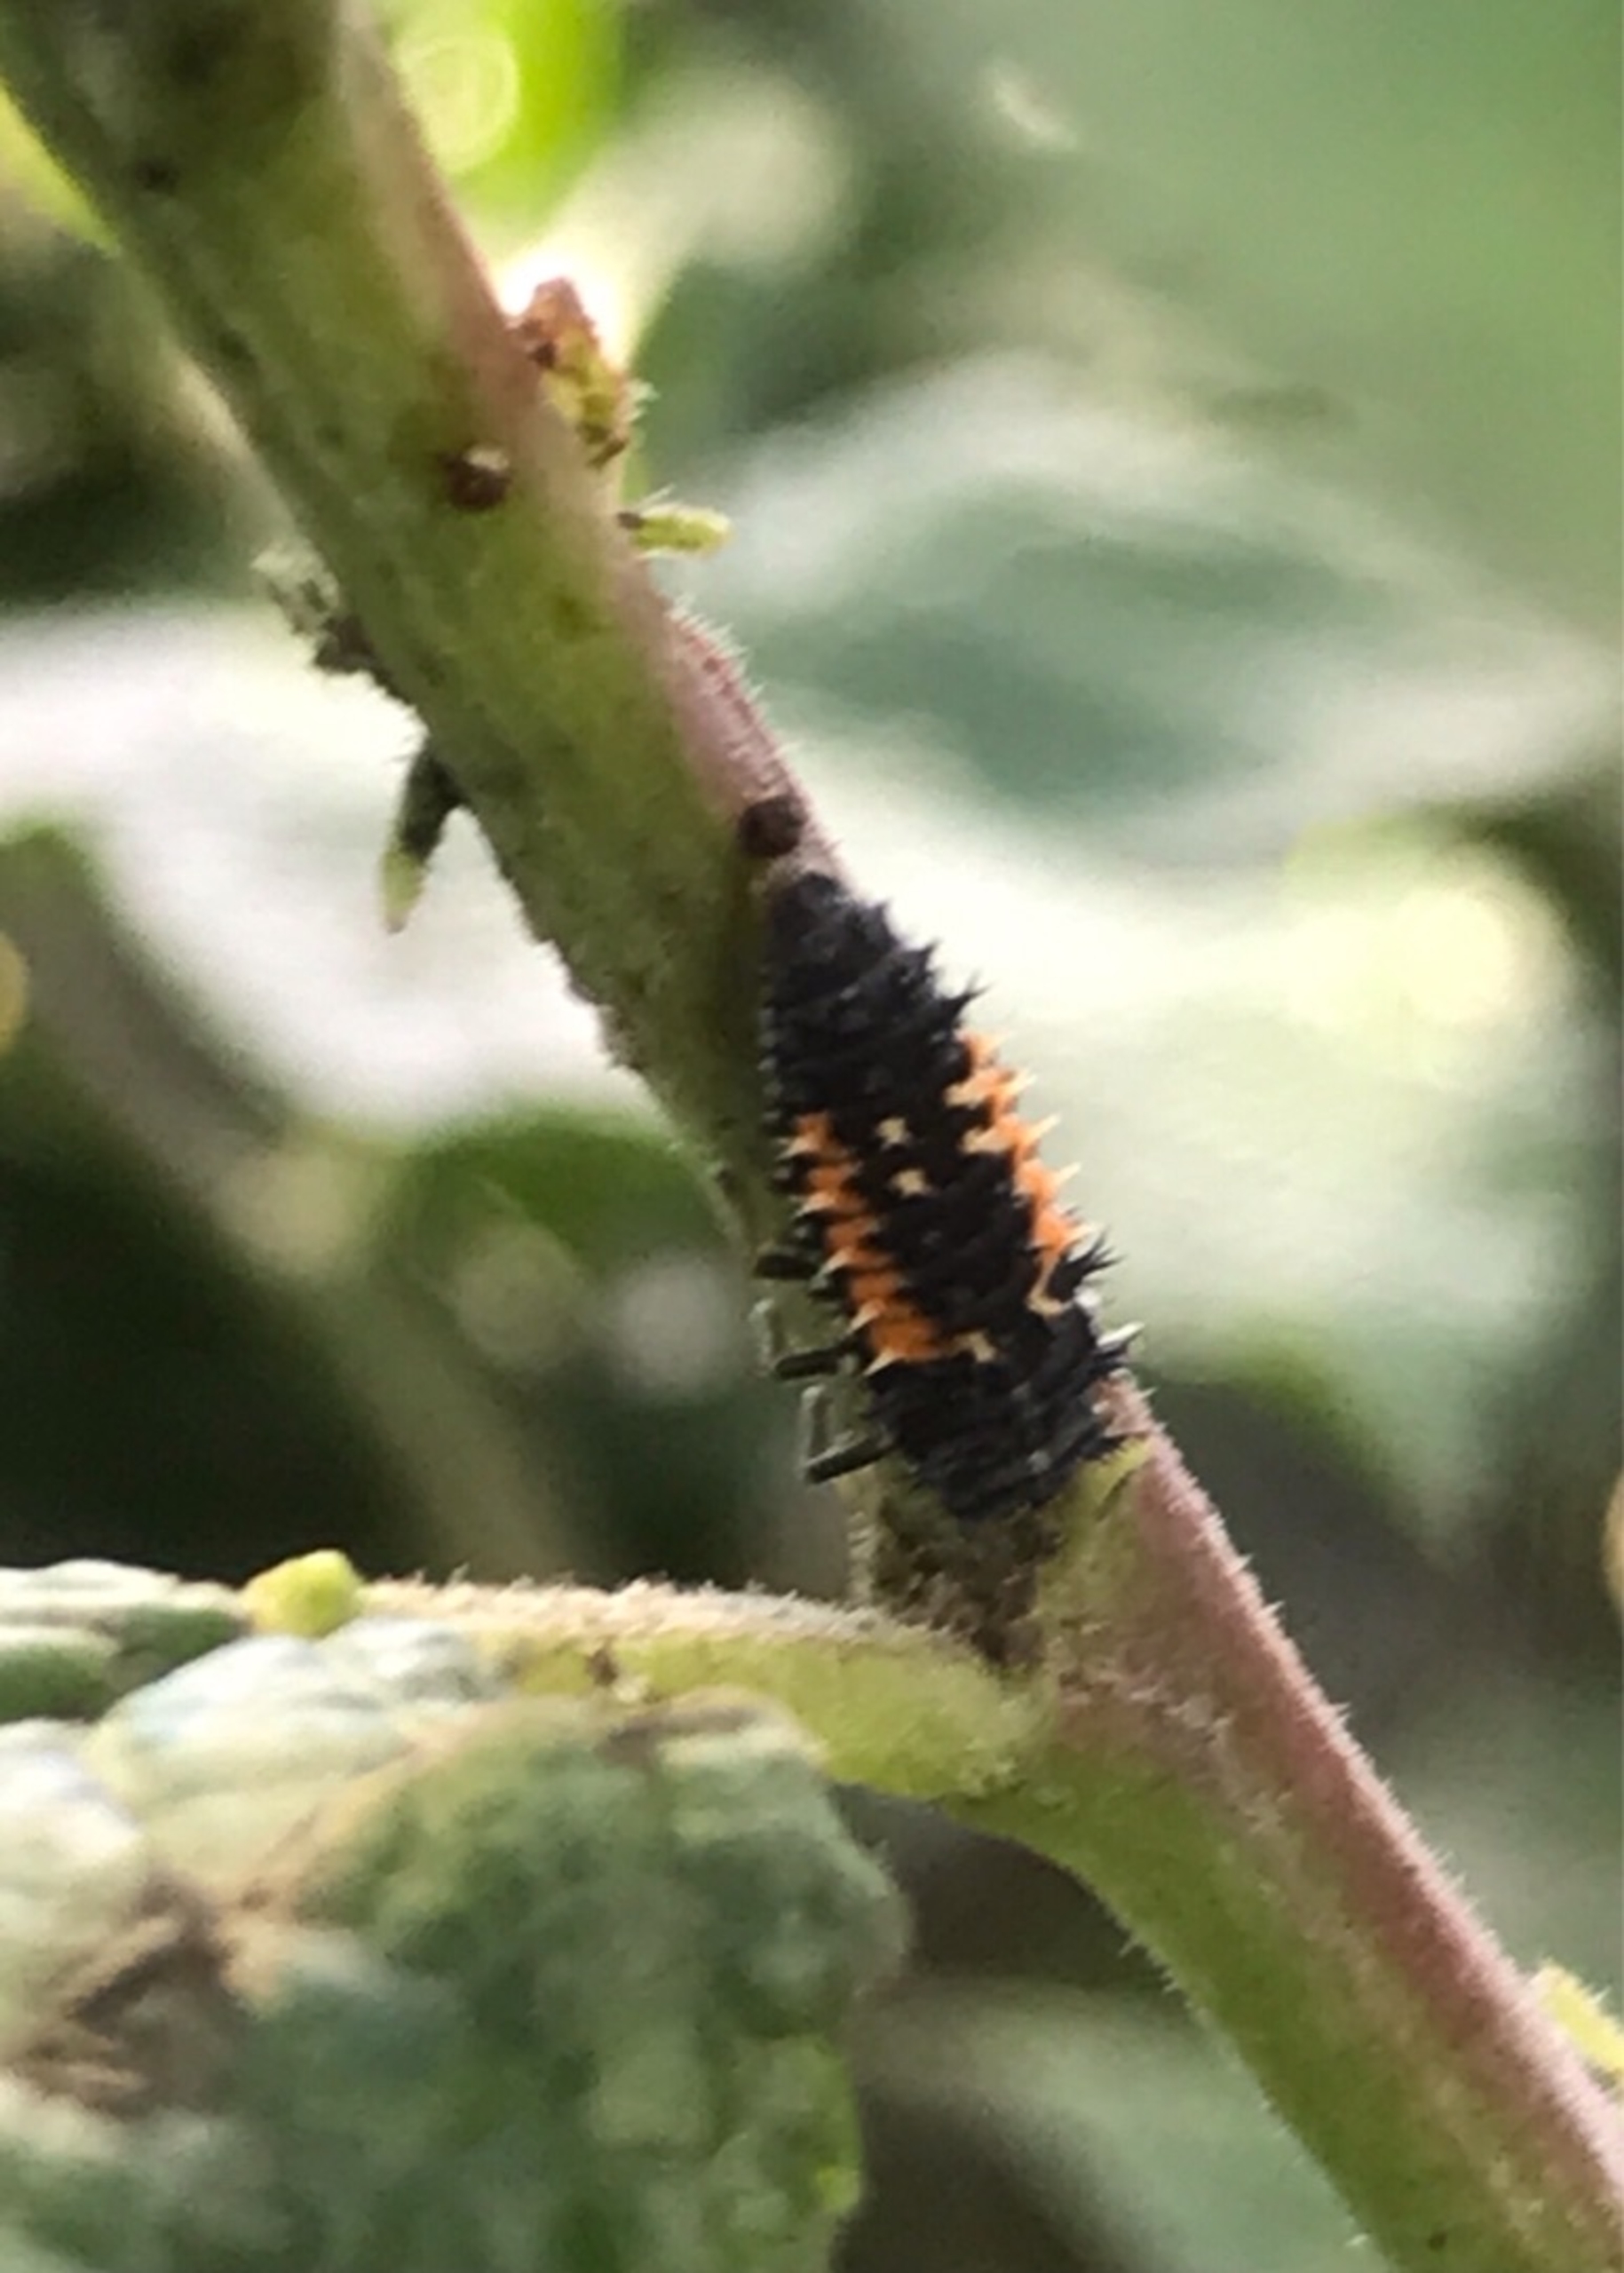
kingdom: Animalia
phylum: Arthropoda
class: Insecta
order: Coleoptera
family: Coccinellidae
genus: Harmonia
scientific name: Harmonia axyridis
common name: Harlekinmariehøne
